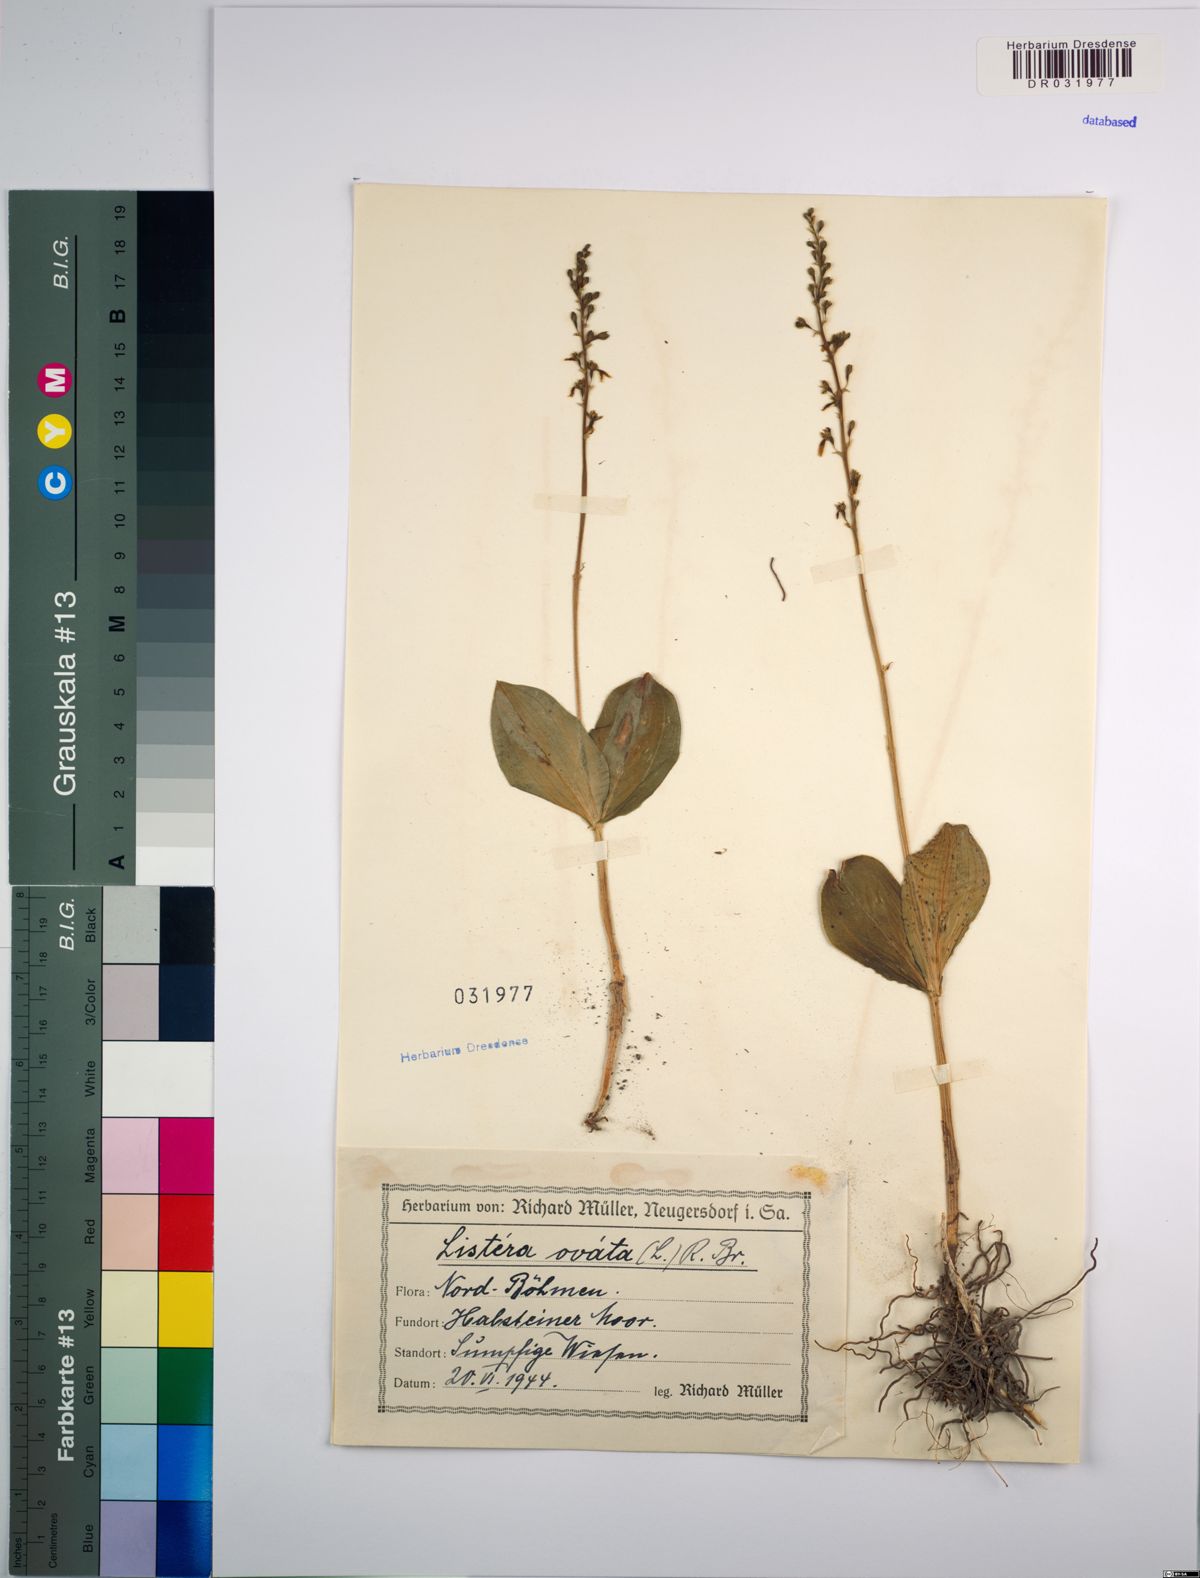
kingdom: Plantae
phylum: Tracheophyta
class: Liliopsida
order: Asparagales
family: Orchidaceae
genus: Neottia
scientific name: Neottia ovata
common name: Common twayblade
